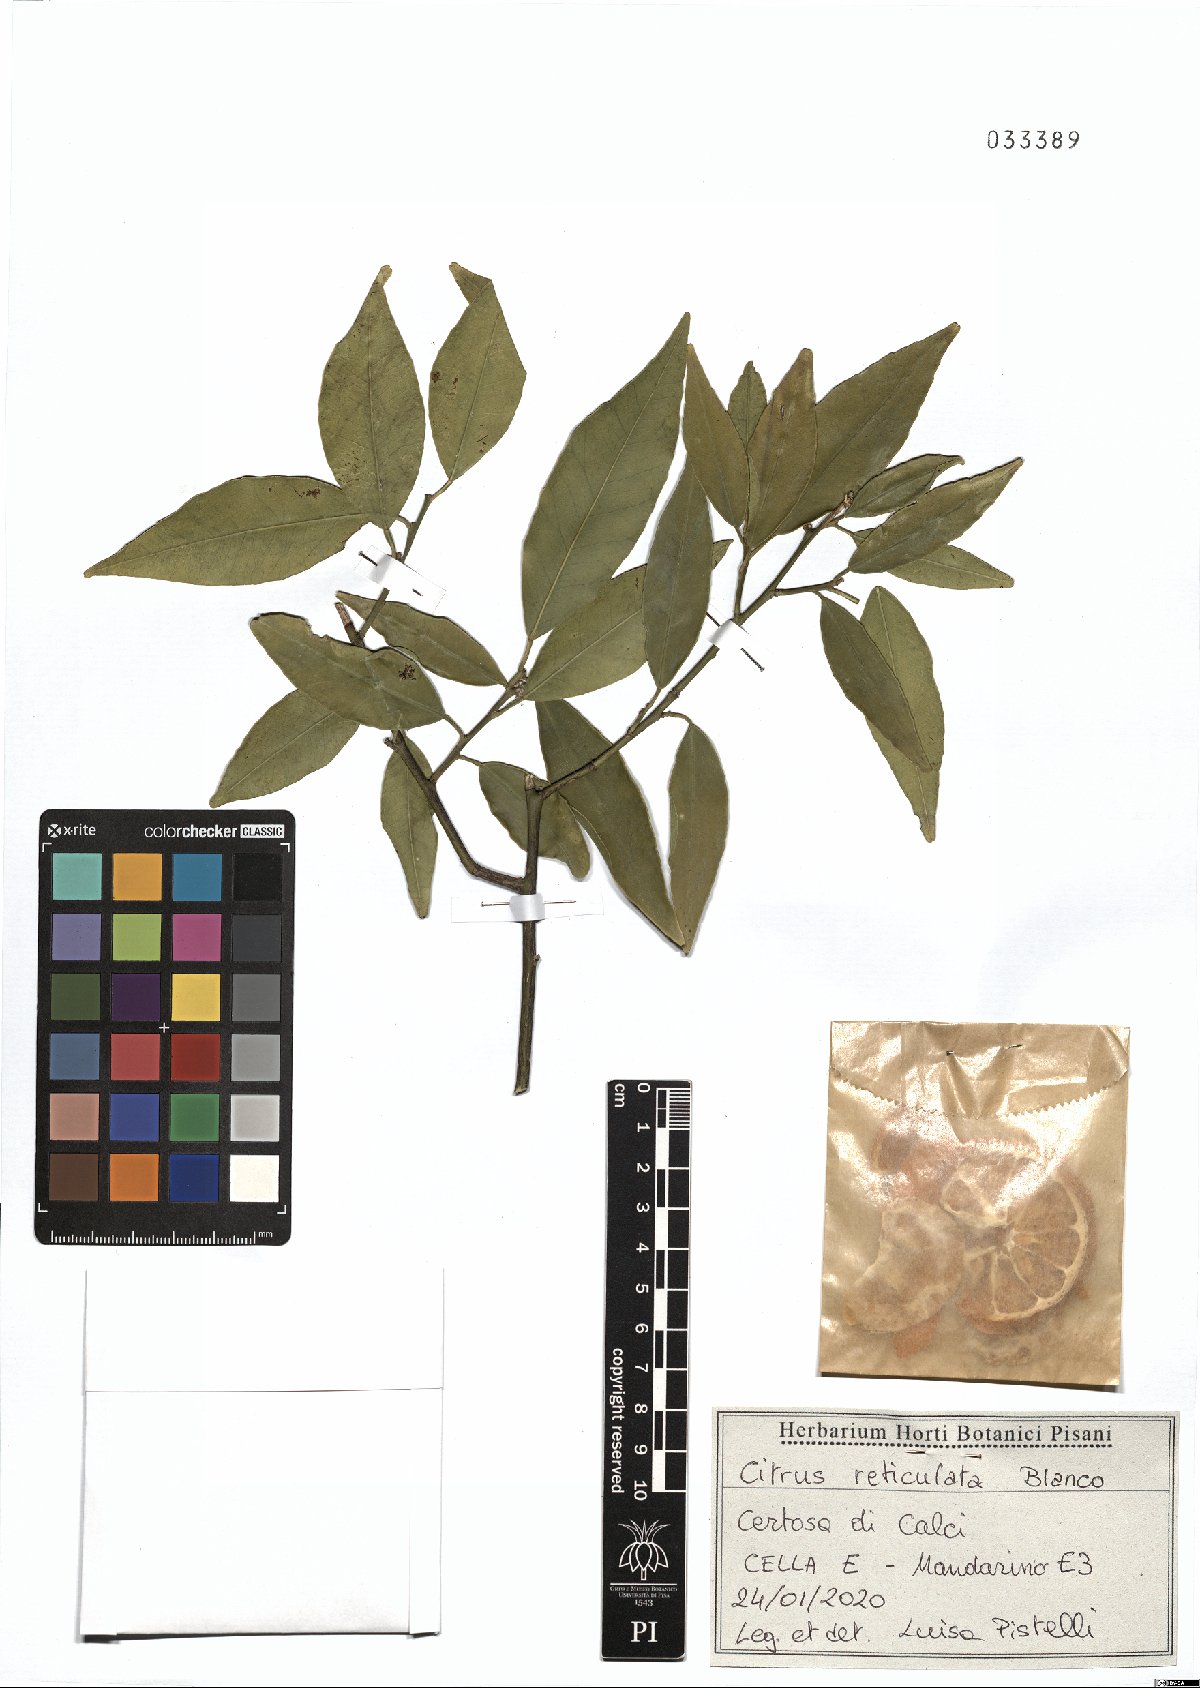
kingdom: Plantae
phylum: Tracheophyta
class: Magnoliopsida
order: Sapindales
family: Rutaceae
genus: Citrus
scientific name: Citrus reticulata
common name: Tangerine
